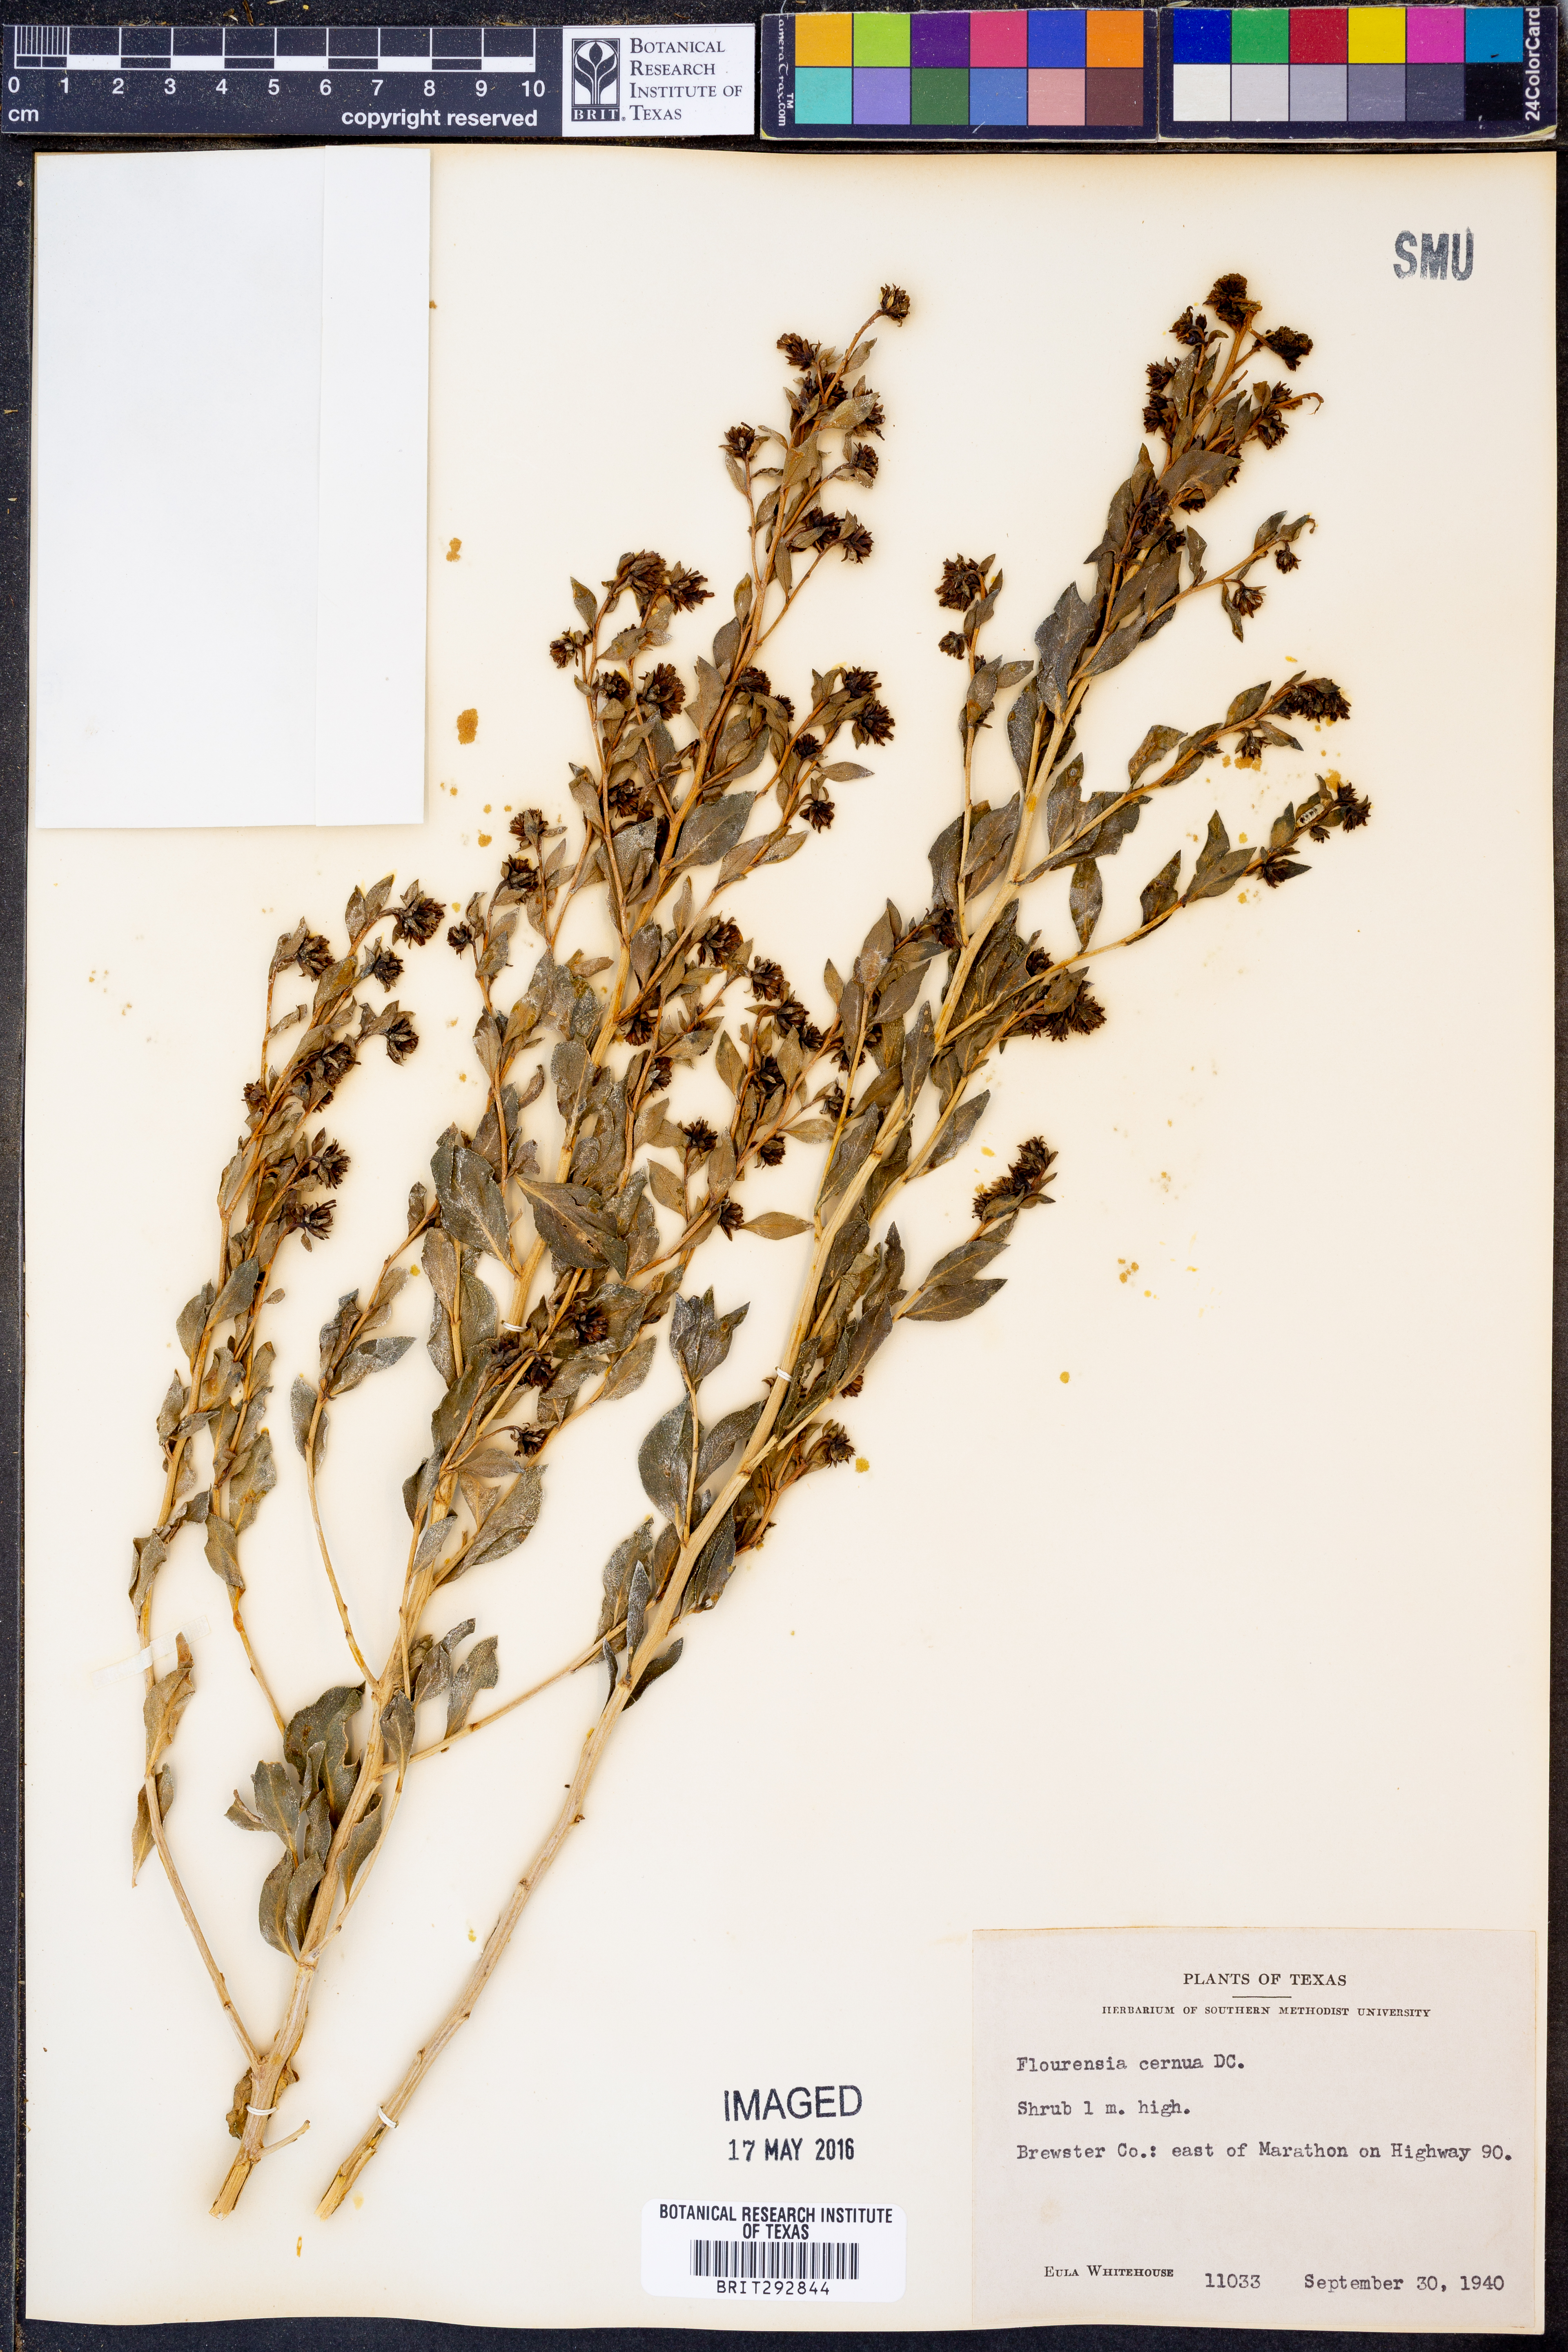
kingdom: Plantae
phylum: Tracheophyta
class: Magnoliopsida
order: Asterales
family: Asteraceae
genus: Flourensia
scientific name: Flourensia cernua
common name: Varnishbush
